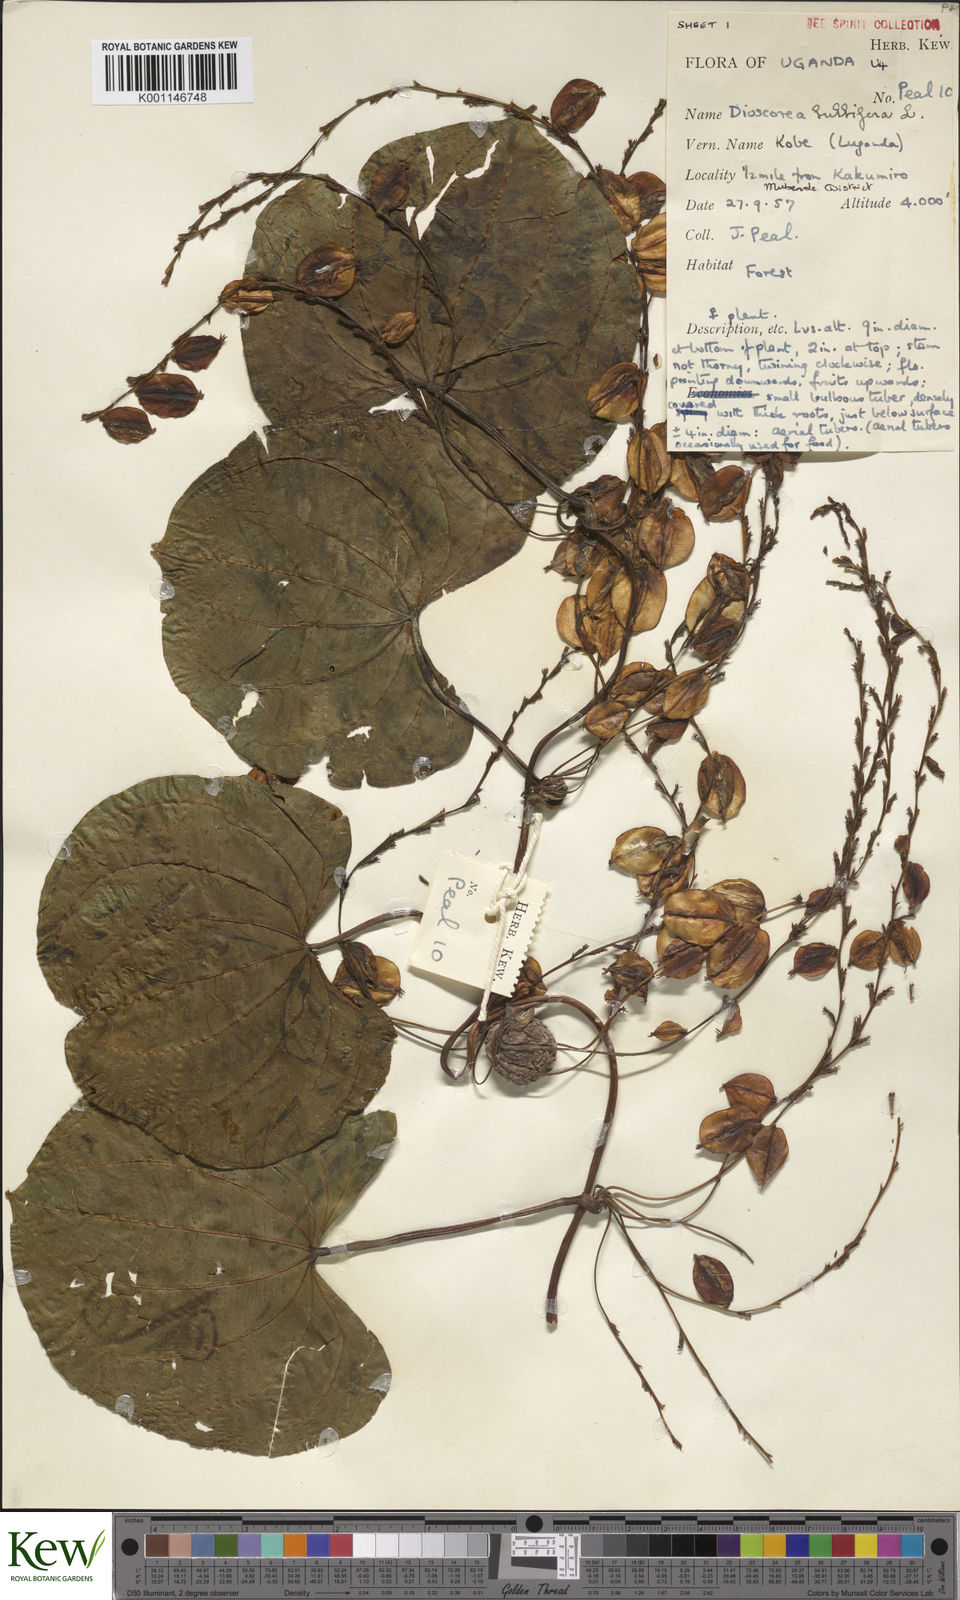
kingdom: Plantae
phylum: Tracheophyta
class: Liliopsida
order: Dioscoreales
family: Dioscoreaceae
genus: Dioscorea
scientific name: Dioscorea bulbifera
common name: Air yam
